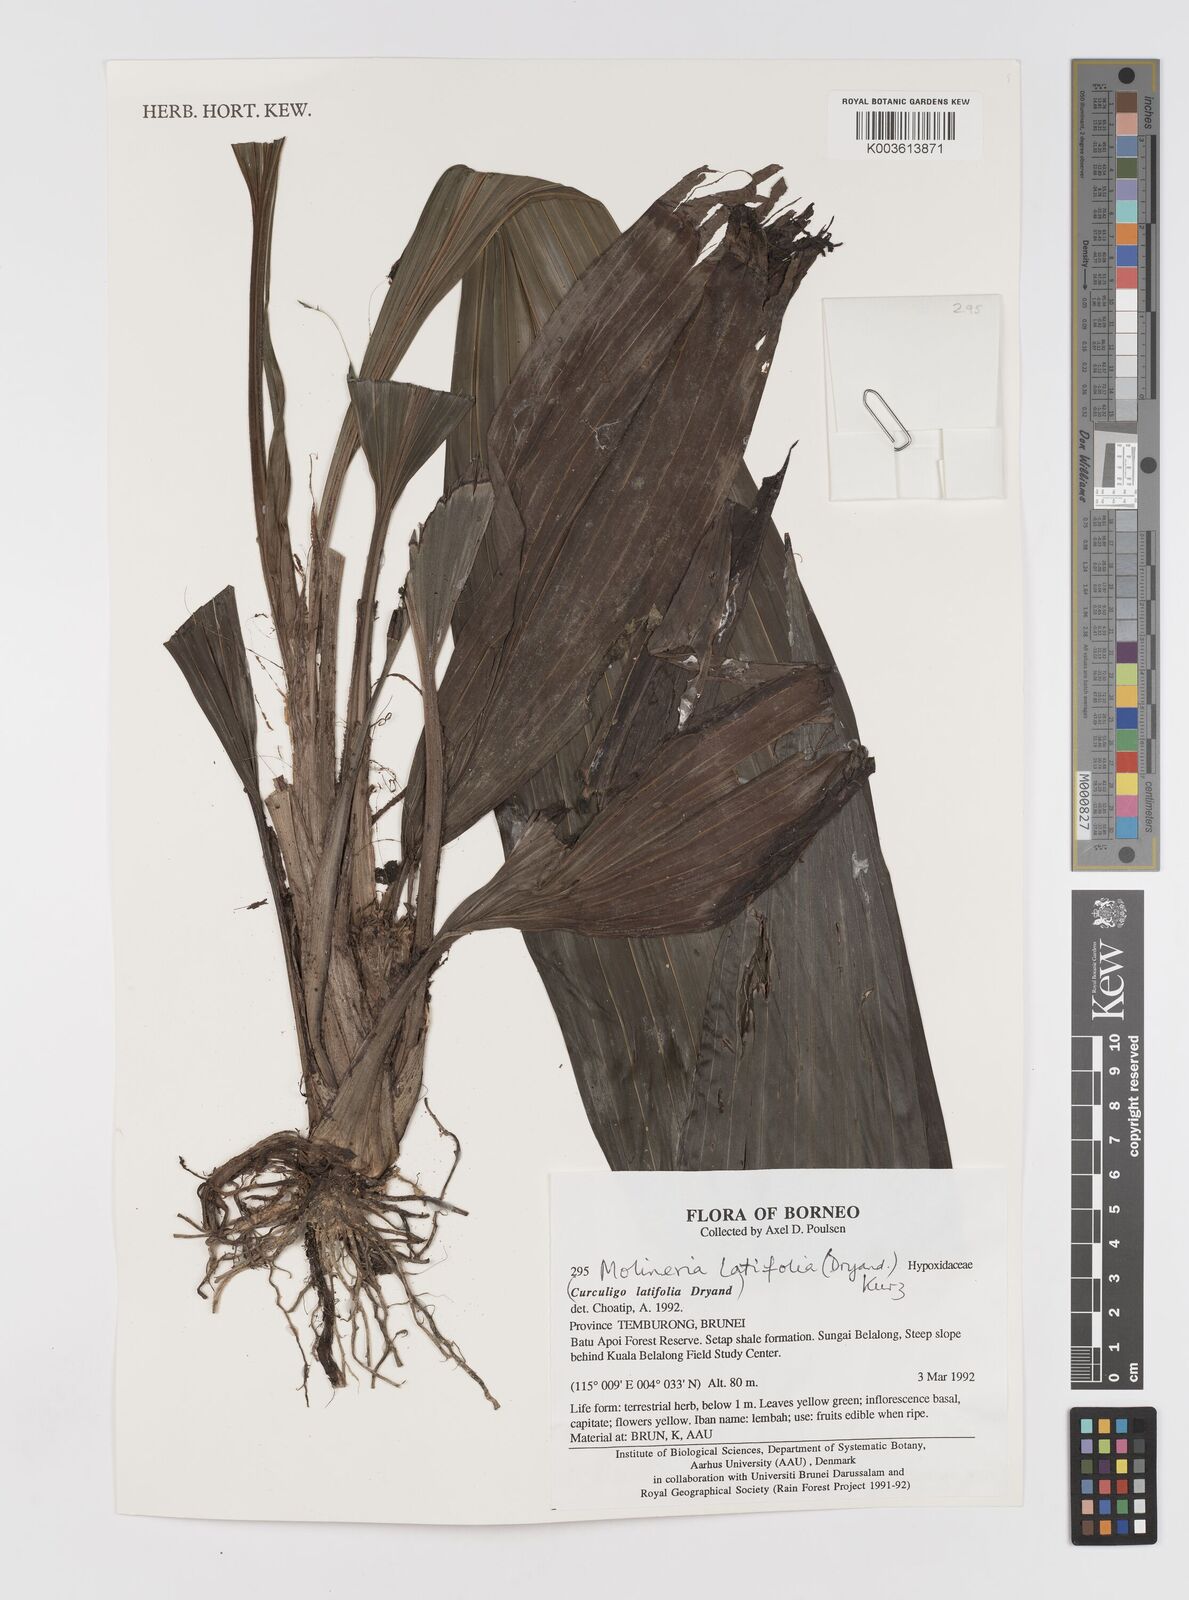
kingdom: Plantae
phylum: Tracheophyta
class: Liliopsida
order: Asparagales
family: Hypoxidaceae
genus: Curculigo
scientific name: Curculigo latifolia
